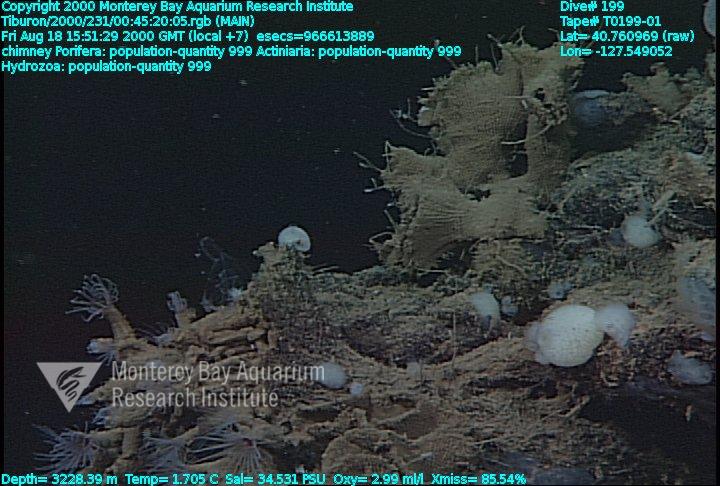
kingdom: Animalia
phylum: Porifera
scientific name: Porifera
